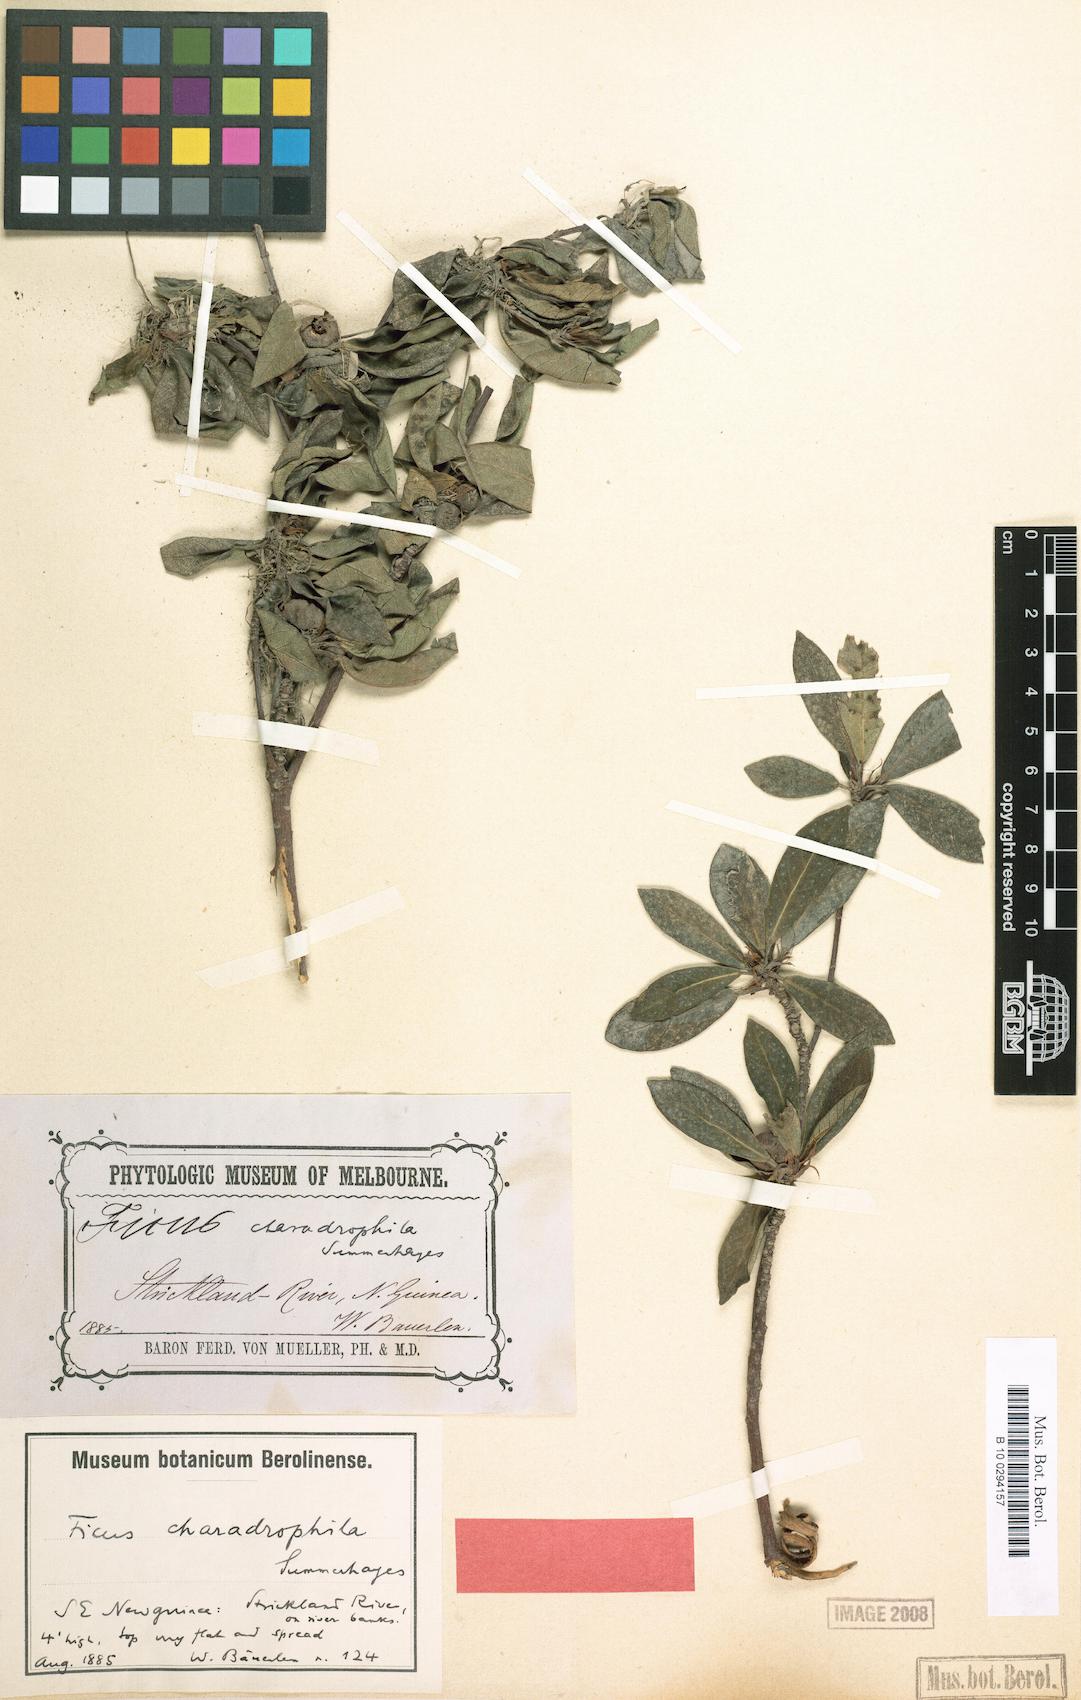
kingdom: Plantae
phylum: Tracheophyta
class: Magnoliopsida
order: Rosales
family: Moraceae
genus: Ficus
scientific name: Ficus arbuscula
